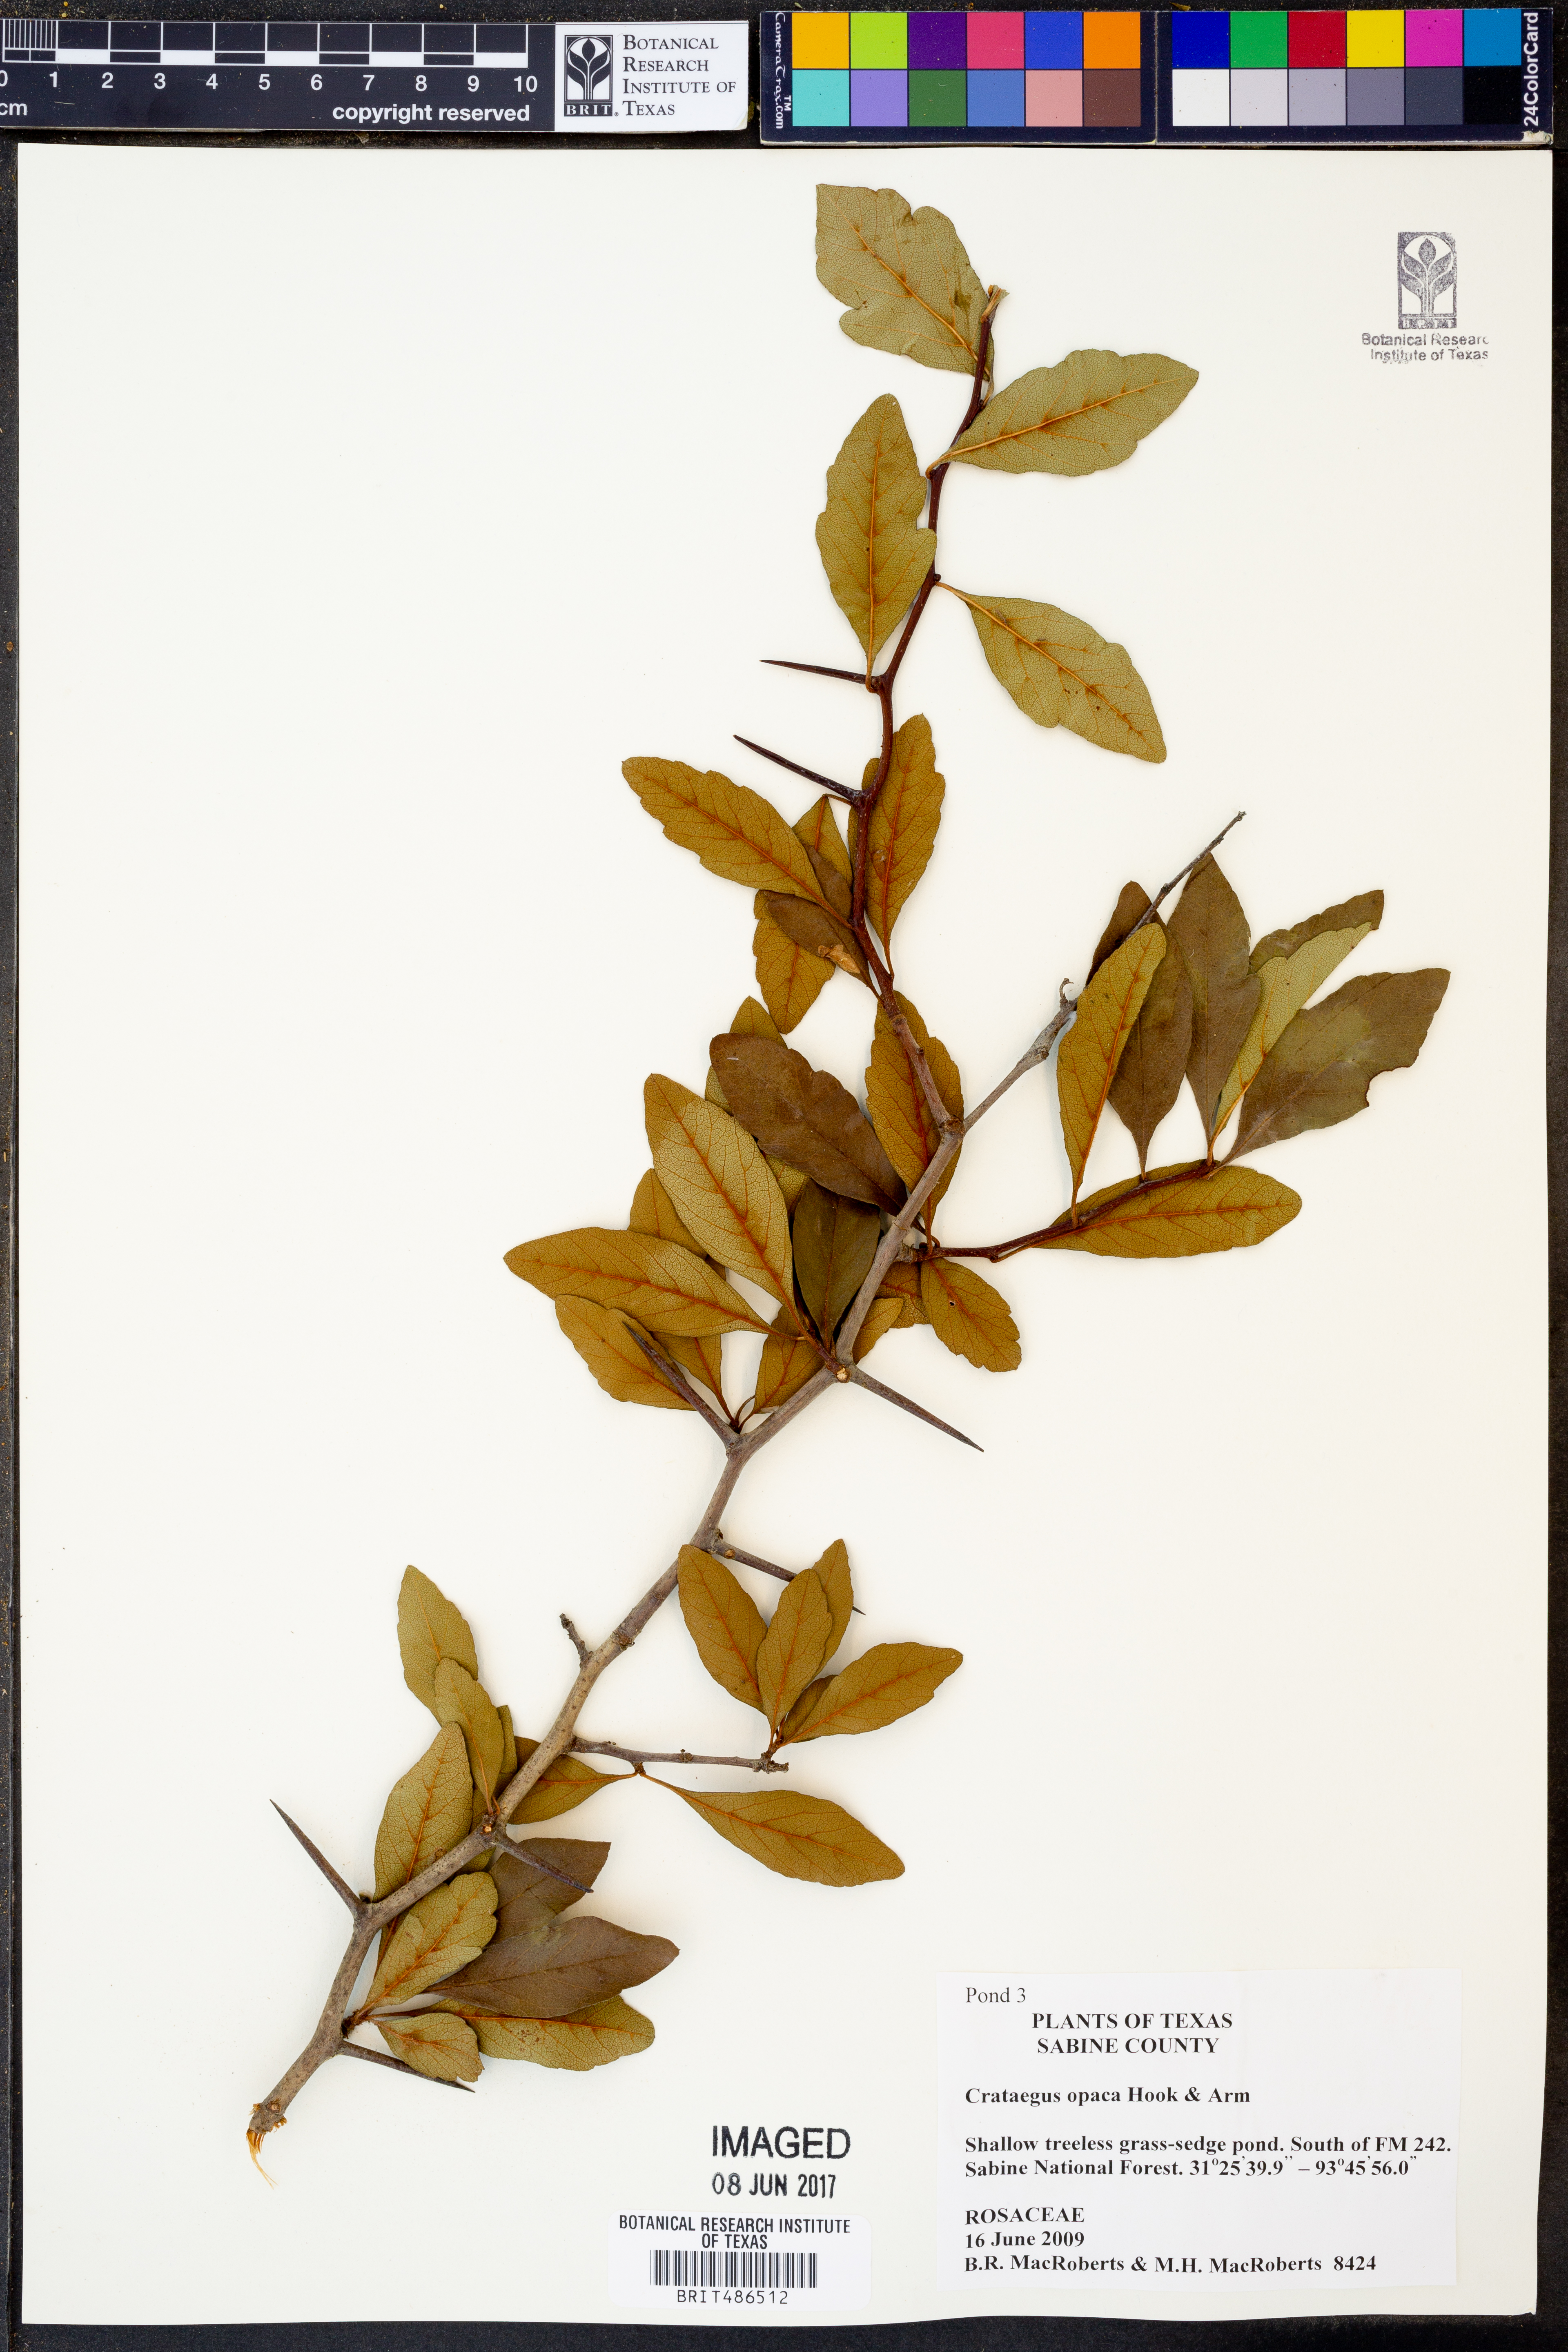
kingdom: Plantae
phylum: Tracheophyta
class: Magnoliopsida
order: Rosales
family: Rosaceae
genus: Crataegus
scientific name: Crataegus opaca
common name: Apple haw
